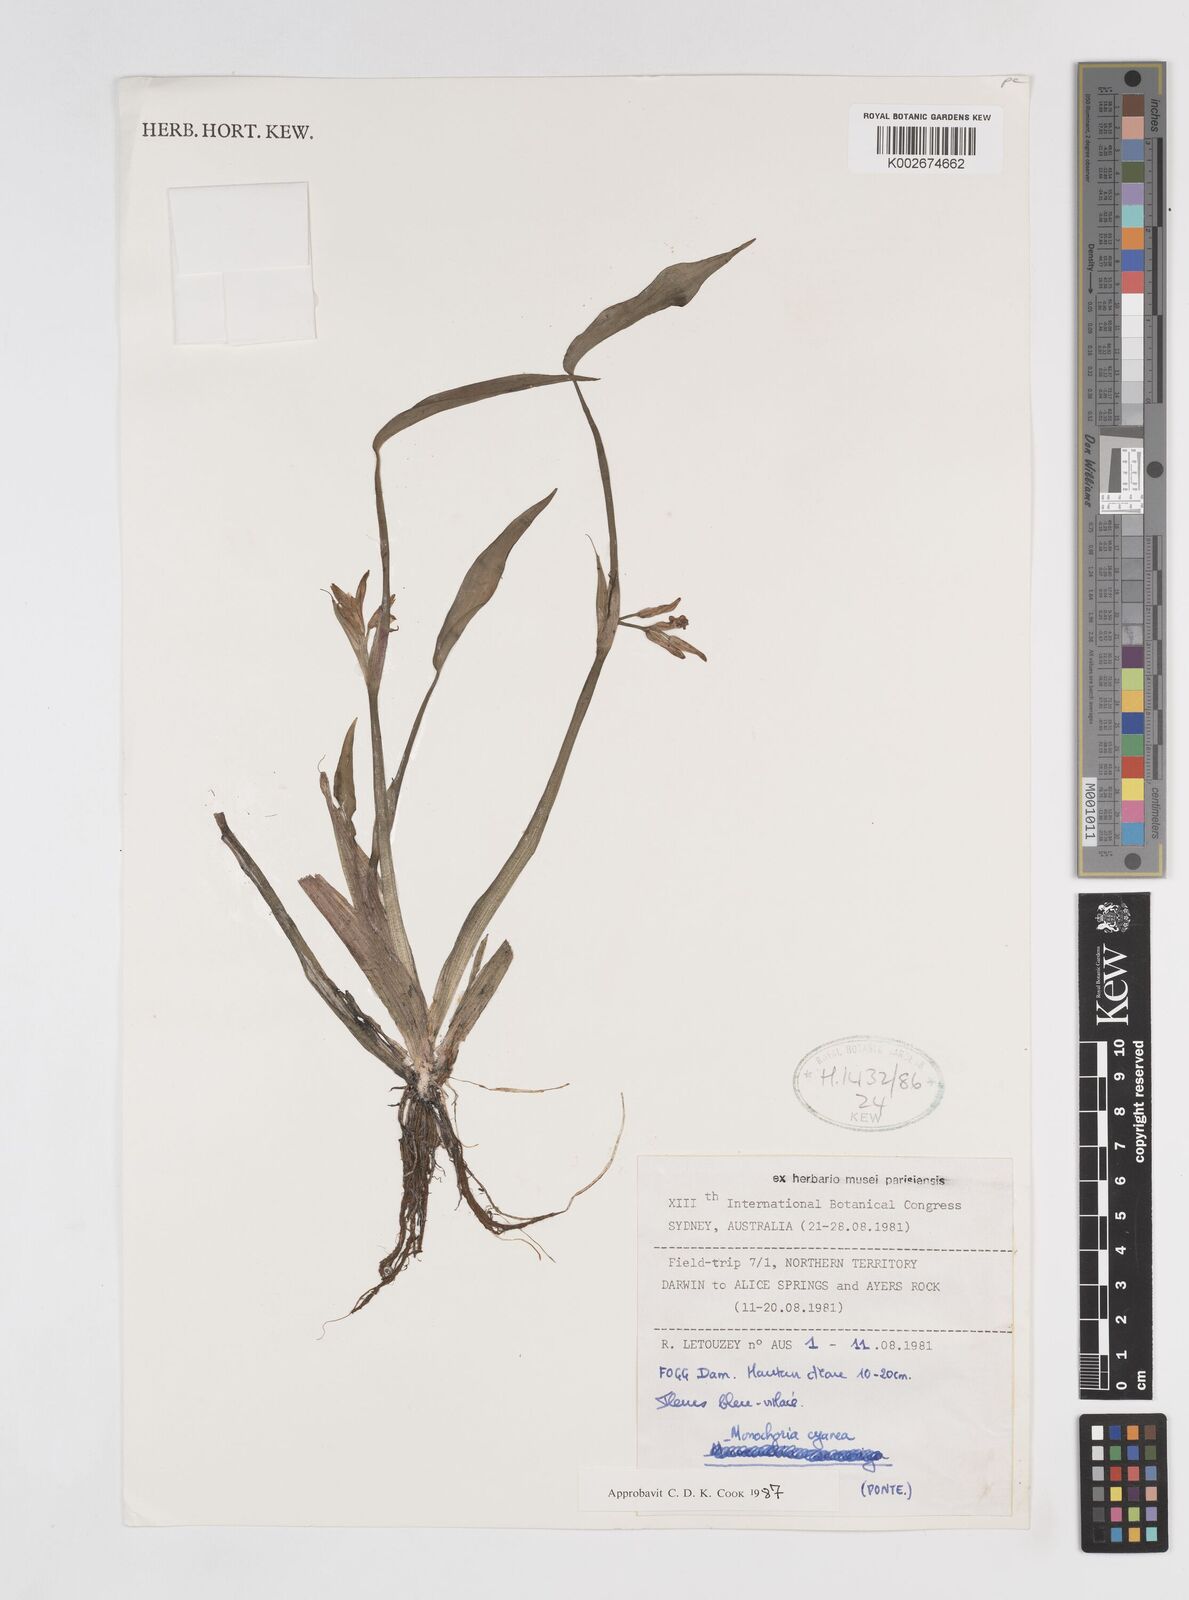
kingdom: Plantae
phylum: Tracheophyta
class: Liliopsida
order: Commelinales
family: Pontederiaceae
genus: Pontederia
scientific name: Pontederia cyanea
